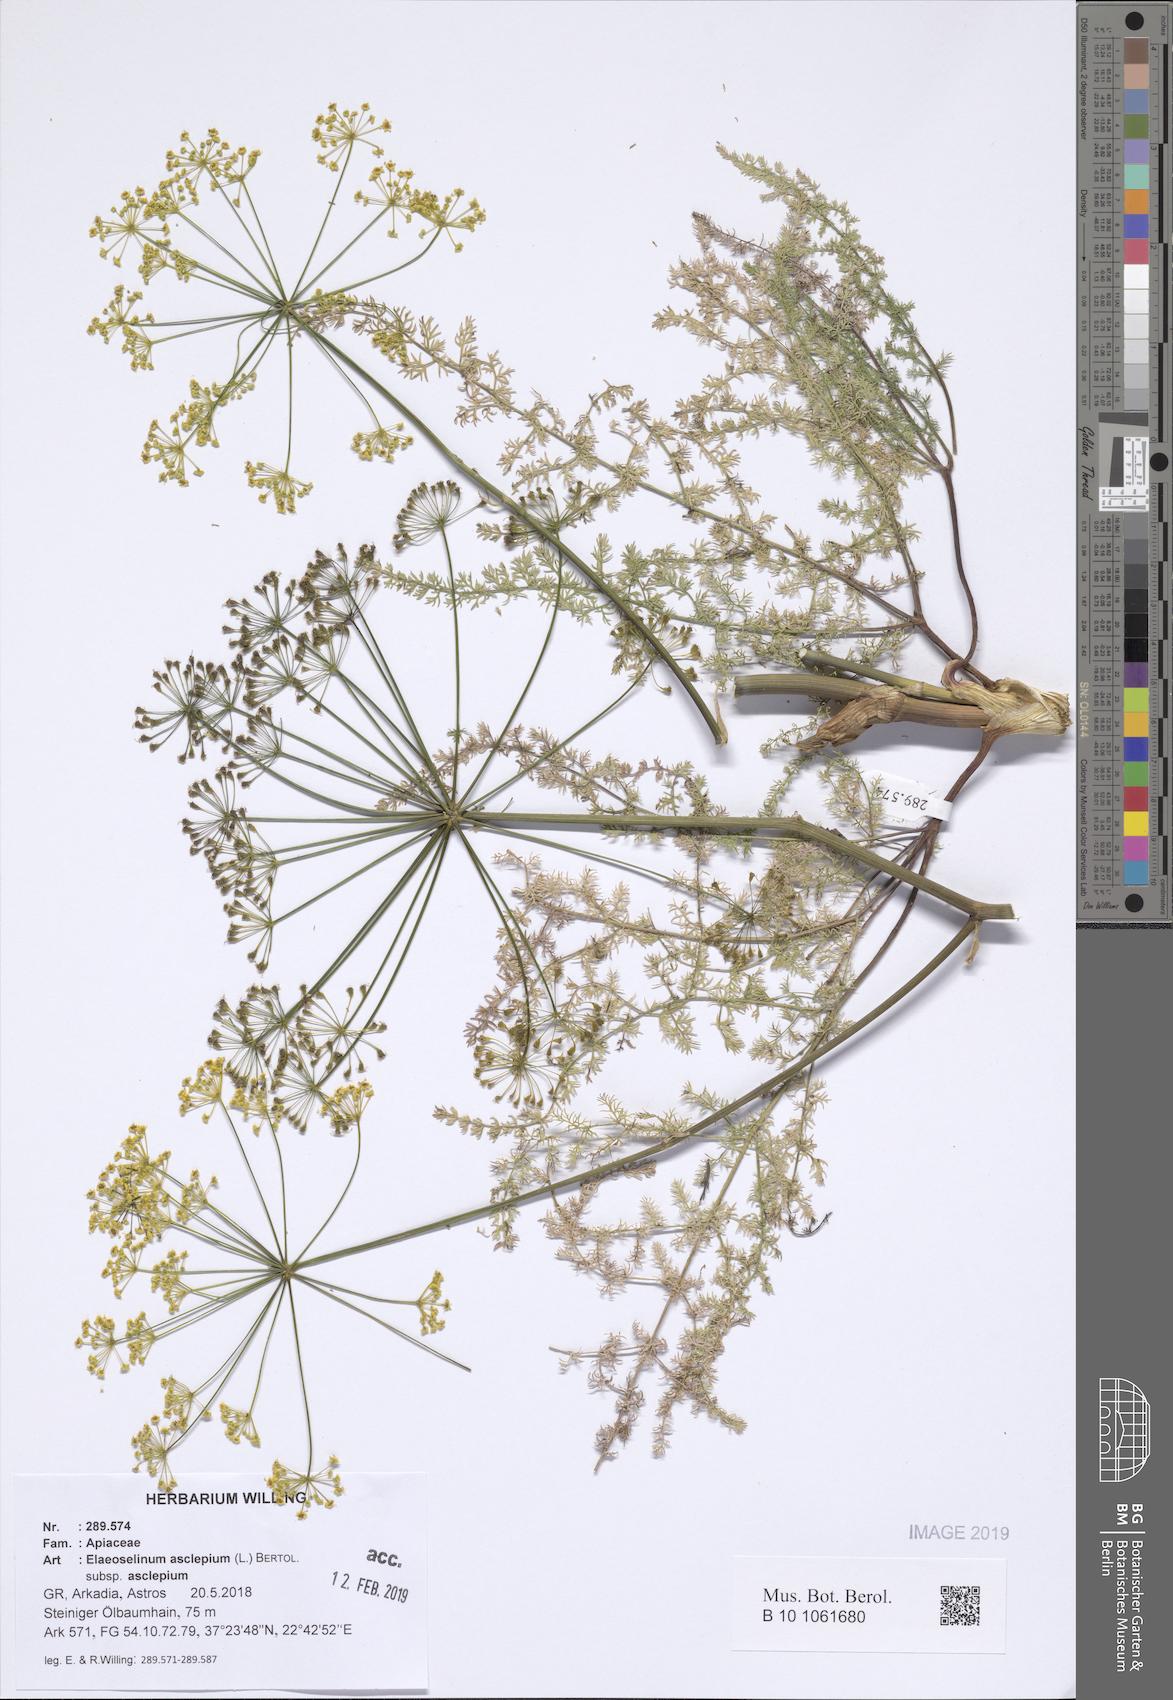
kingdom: Plantae
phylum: Tracheophyta
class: Magnoliopsida
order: Apiales
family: Apiaceae
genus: Thapsia
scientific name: Thapsia asclepium
